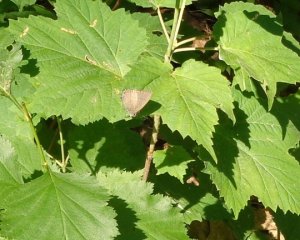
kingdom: Animalia
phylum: Arthropoda
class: Insecta
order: Lepidoptera
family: Lycaenidae
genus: Satyrium
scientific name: Satyrium calanus
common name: Banded Hairstreak
